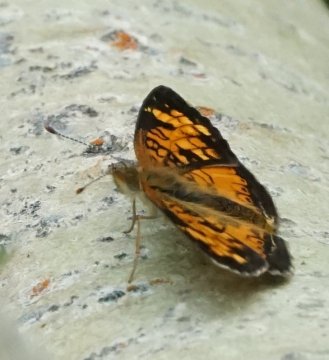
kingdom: Animalia
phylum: Arthropoda
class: Insecta
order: Lepidoptera
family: Nymphalidae
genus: Phyciodes
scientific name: Phyciodes tharos
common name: Northern Crescent
